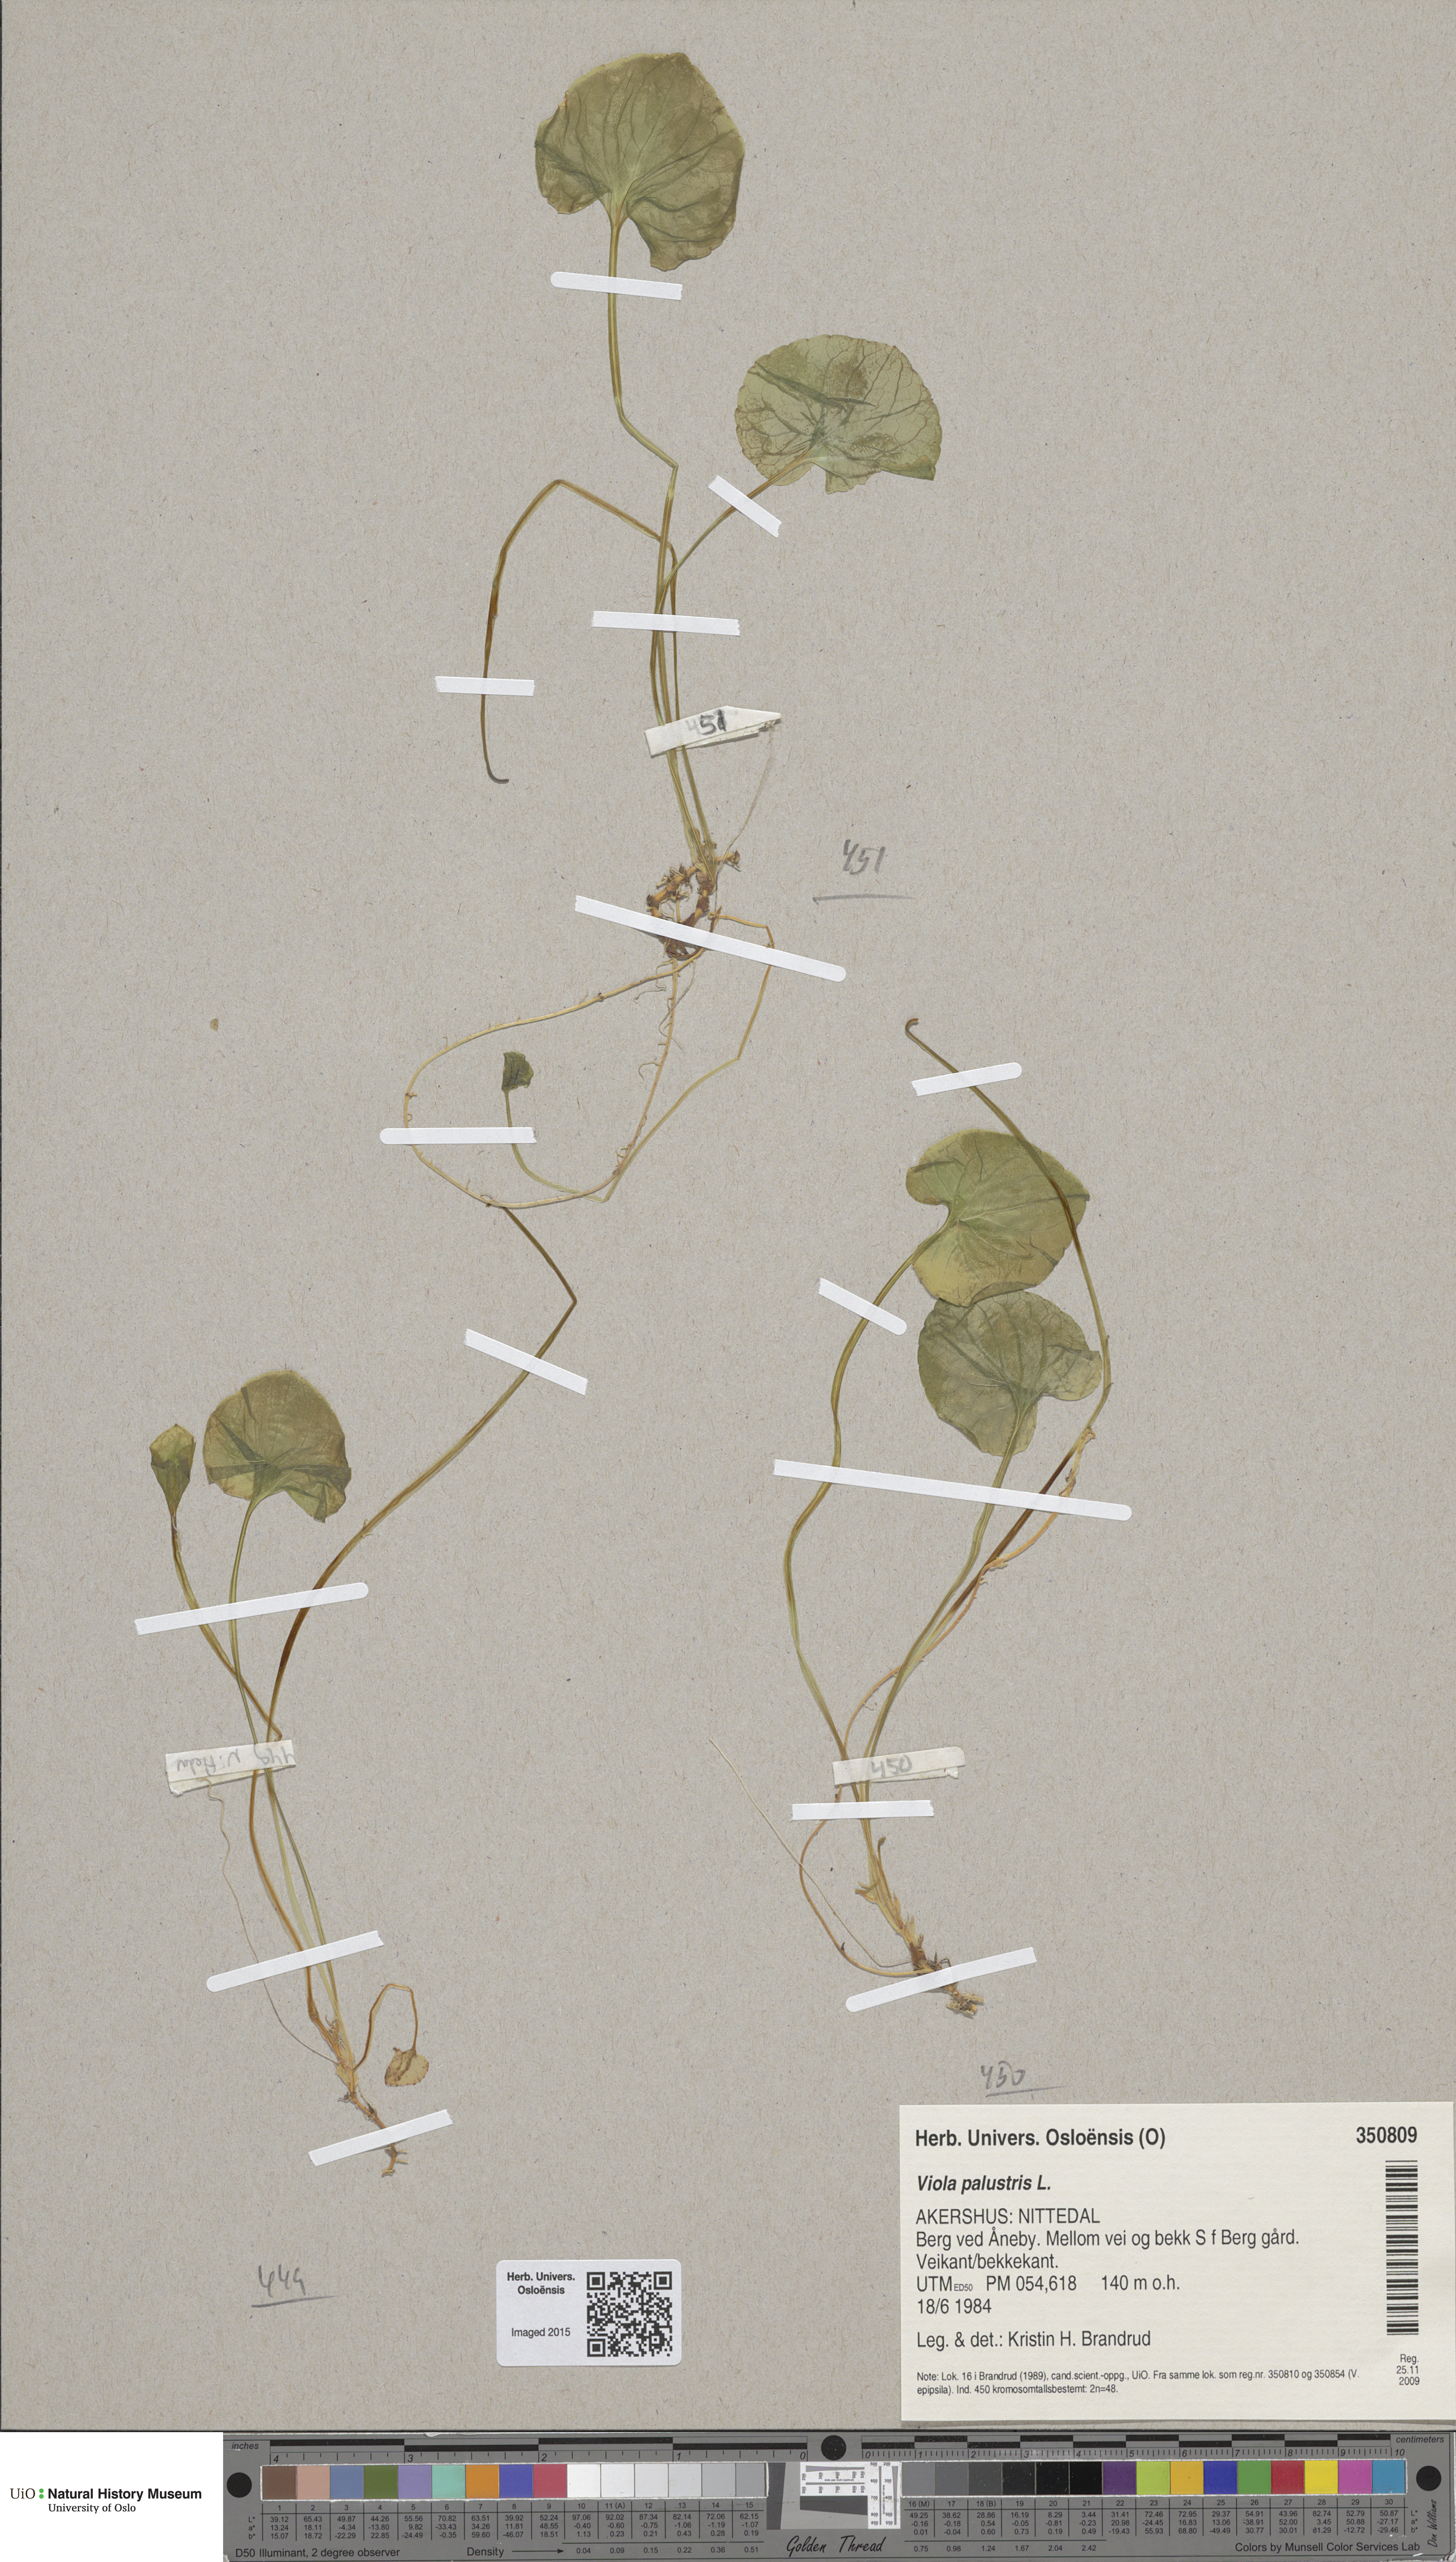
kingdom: Plantae
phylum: Tracheophyta
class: Magnoliopsida
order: Malpighiales
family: Violaceae
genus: Viola
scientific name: Viola palustris
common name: Marsh violet
